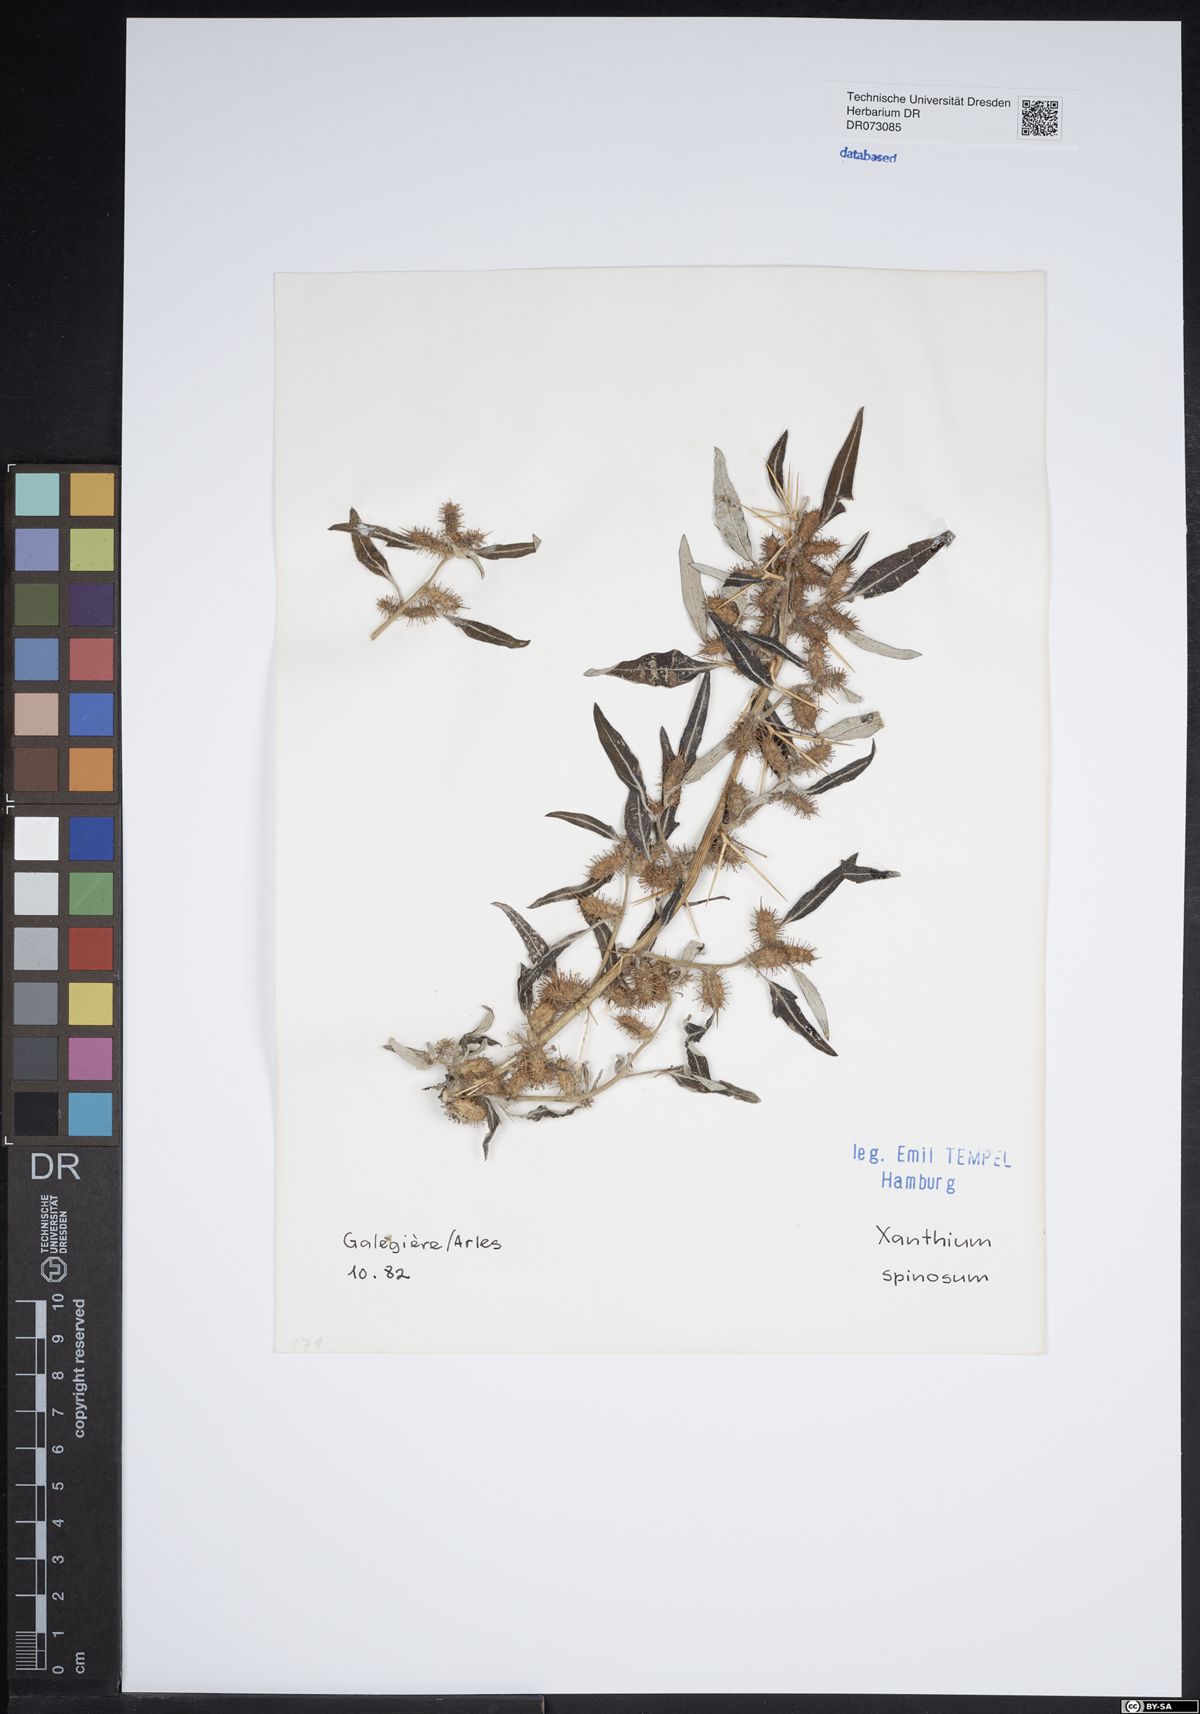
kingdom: Plantae
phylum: Tracheophyta
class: Magnoliopsida
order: Asterales
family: Asteraceae
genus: Staehelina
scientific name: Staehelina dubia
